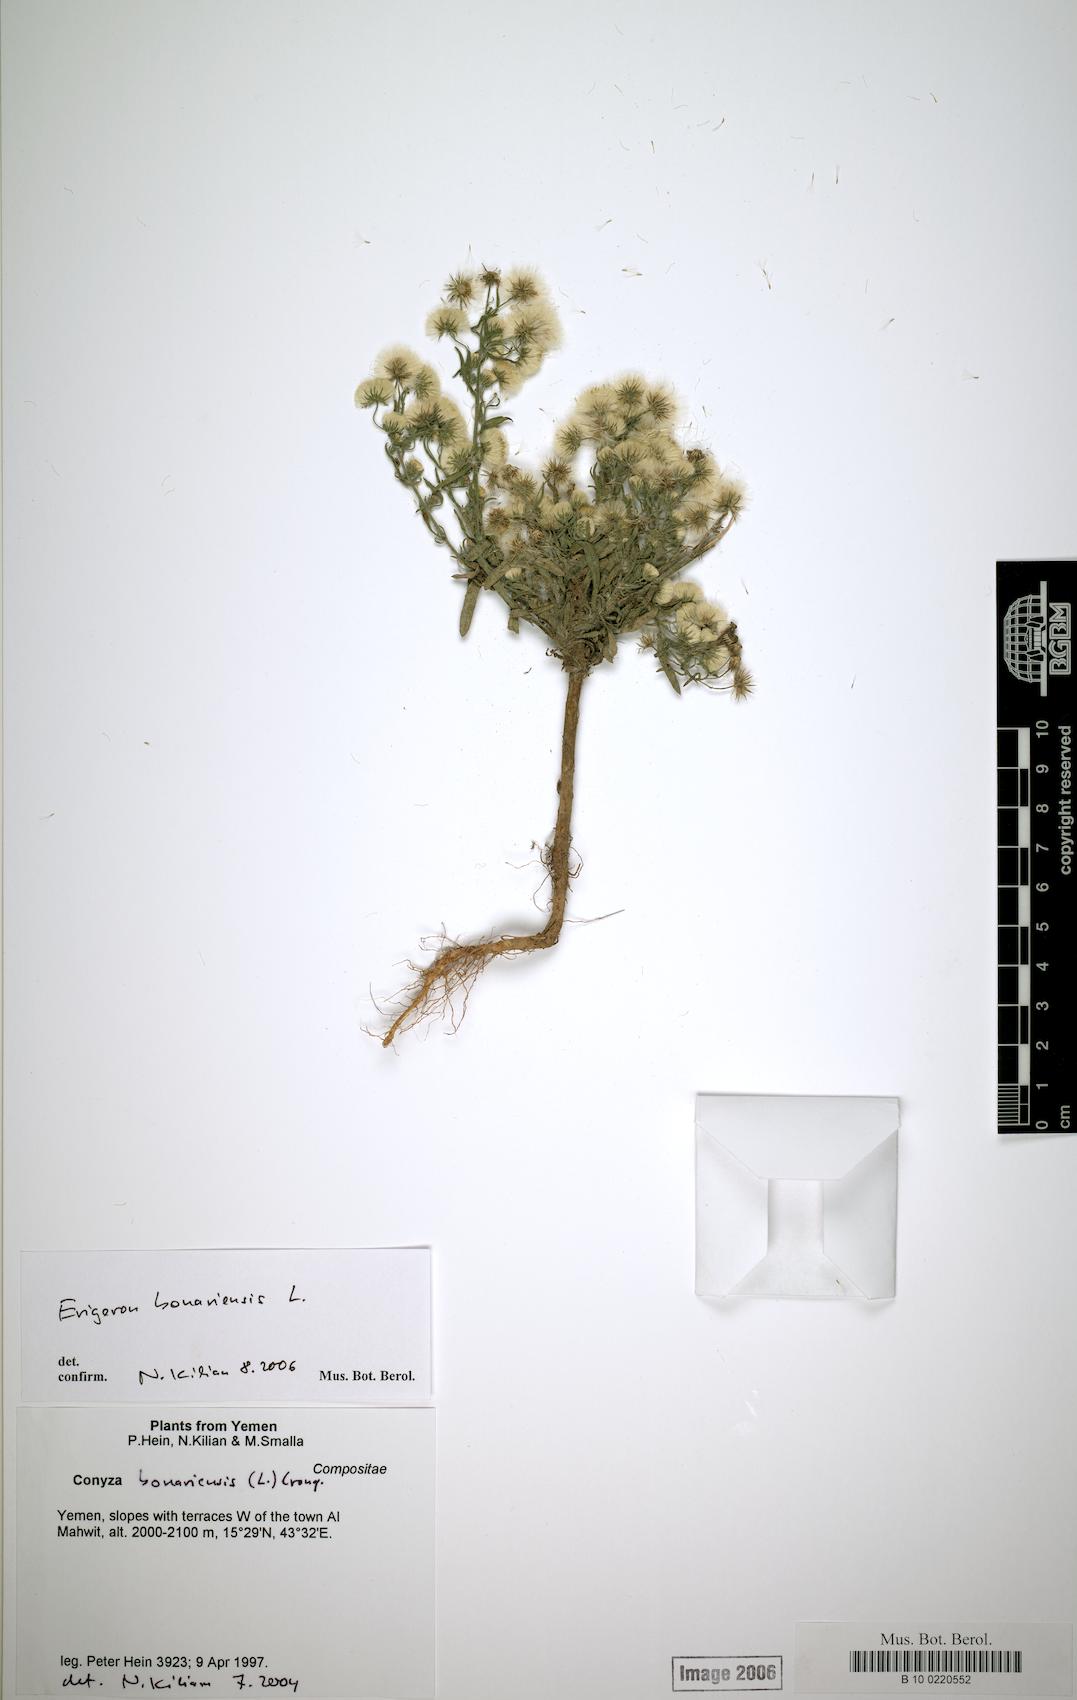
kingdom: Plantae
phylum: Tracheophyta
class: Magnoliopsida
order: Caryophyllales
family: Caryophyllaceae
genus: Stellaria
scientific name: Stellaria media
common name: Common chickweed
